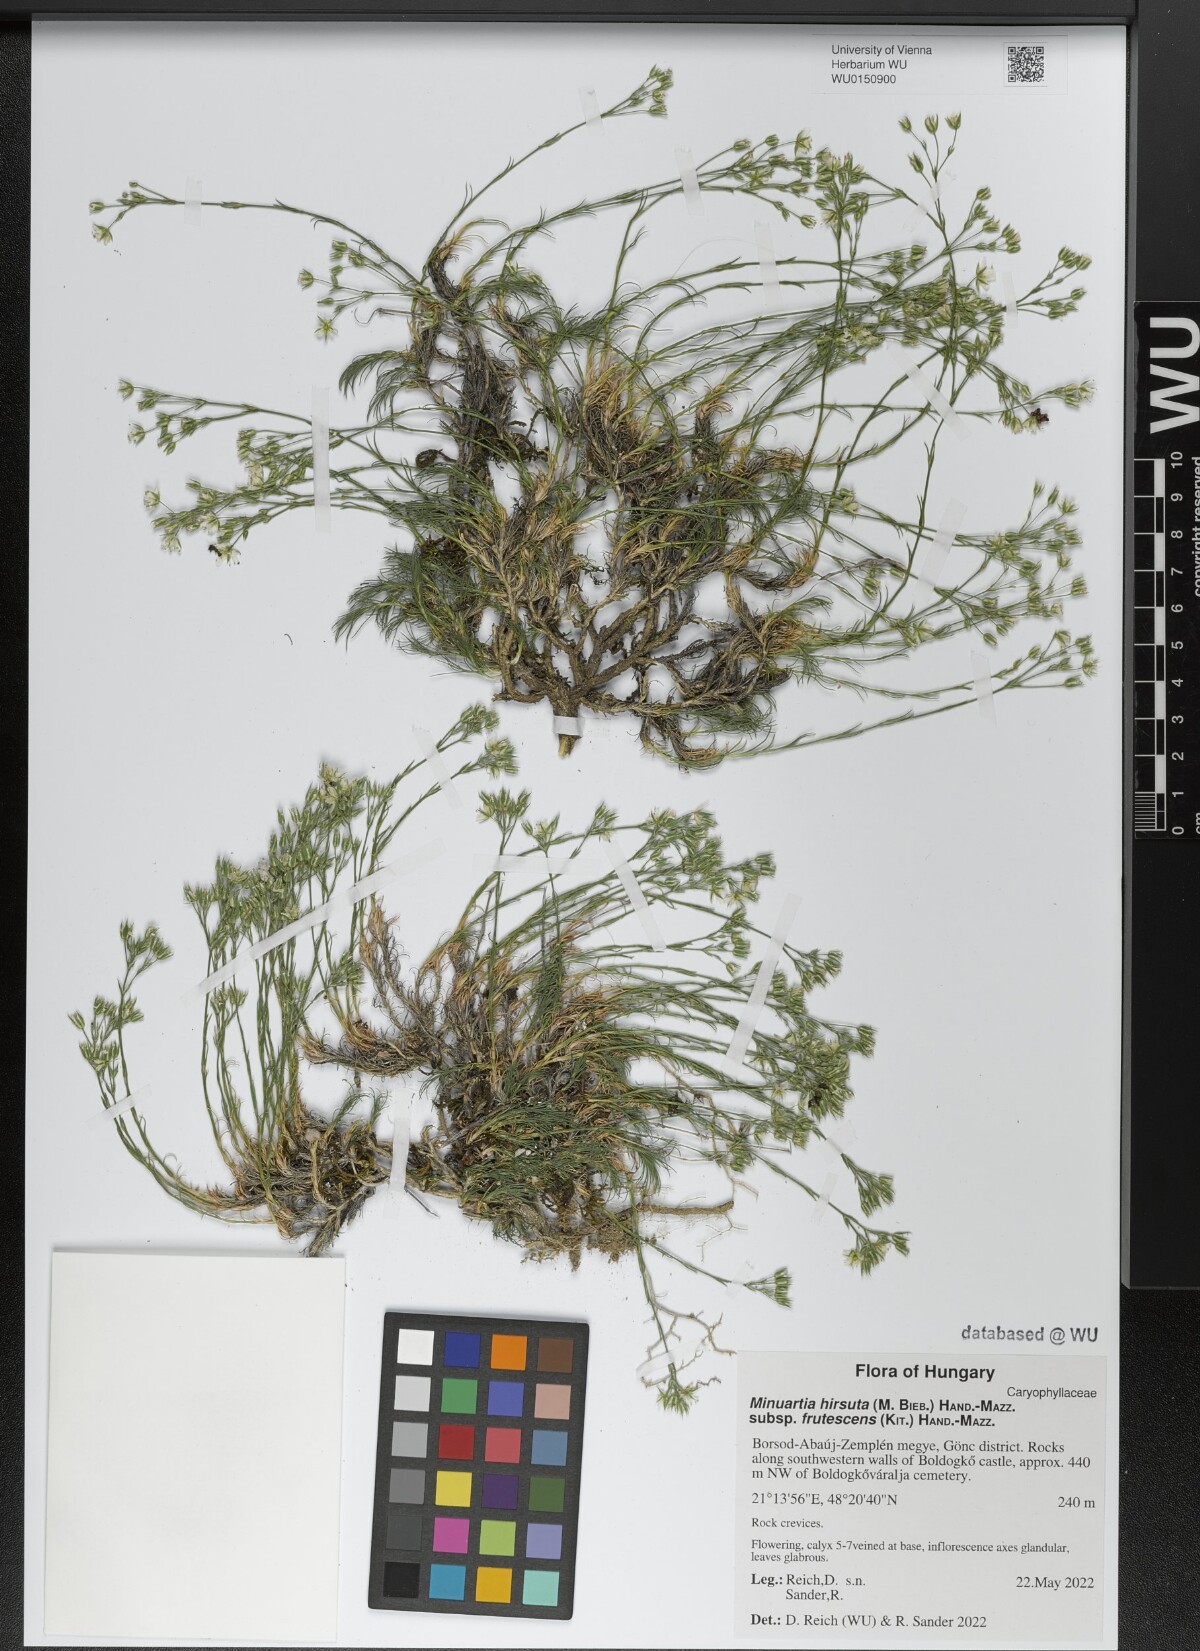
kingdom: Plantae
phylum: Tracheophyta
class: Magnoliopsida
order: Caryophyllales
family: Caryophyllaceae
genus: Minuartia
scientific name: Minuartia hirsuta
